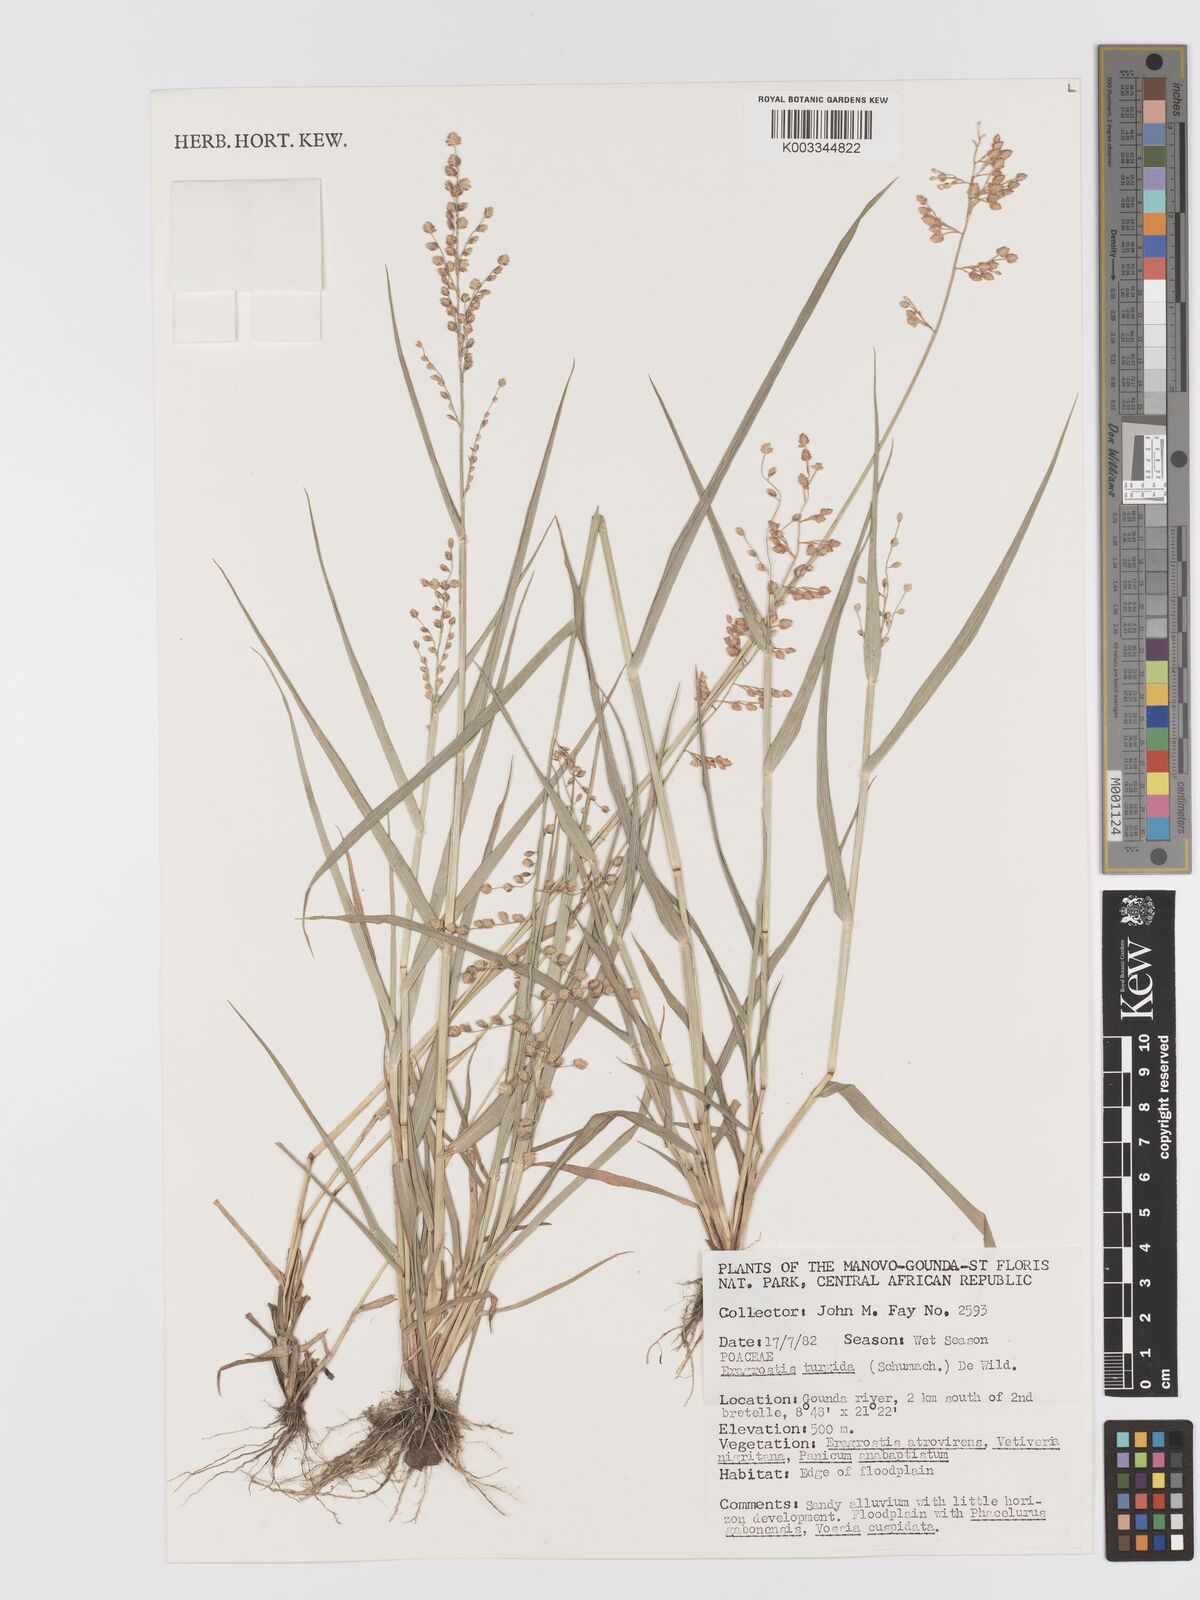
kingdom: Plantae
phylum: Tracheophyta
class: Liliopsida
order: Poales
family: Poaceae
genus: Eragrostis
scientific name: Eragrostis turgida
